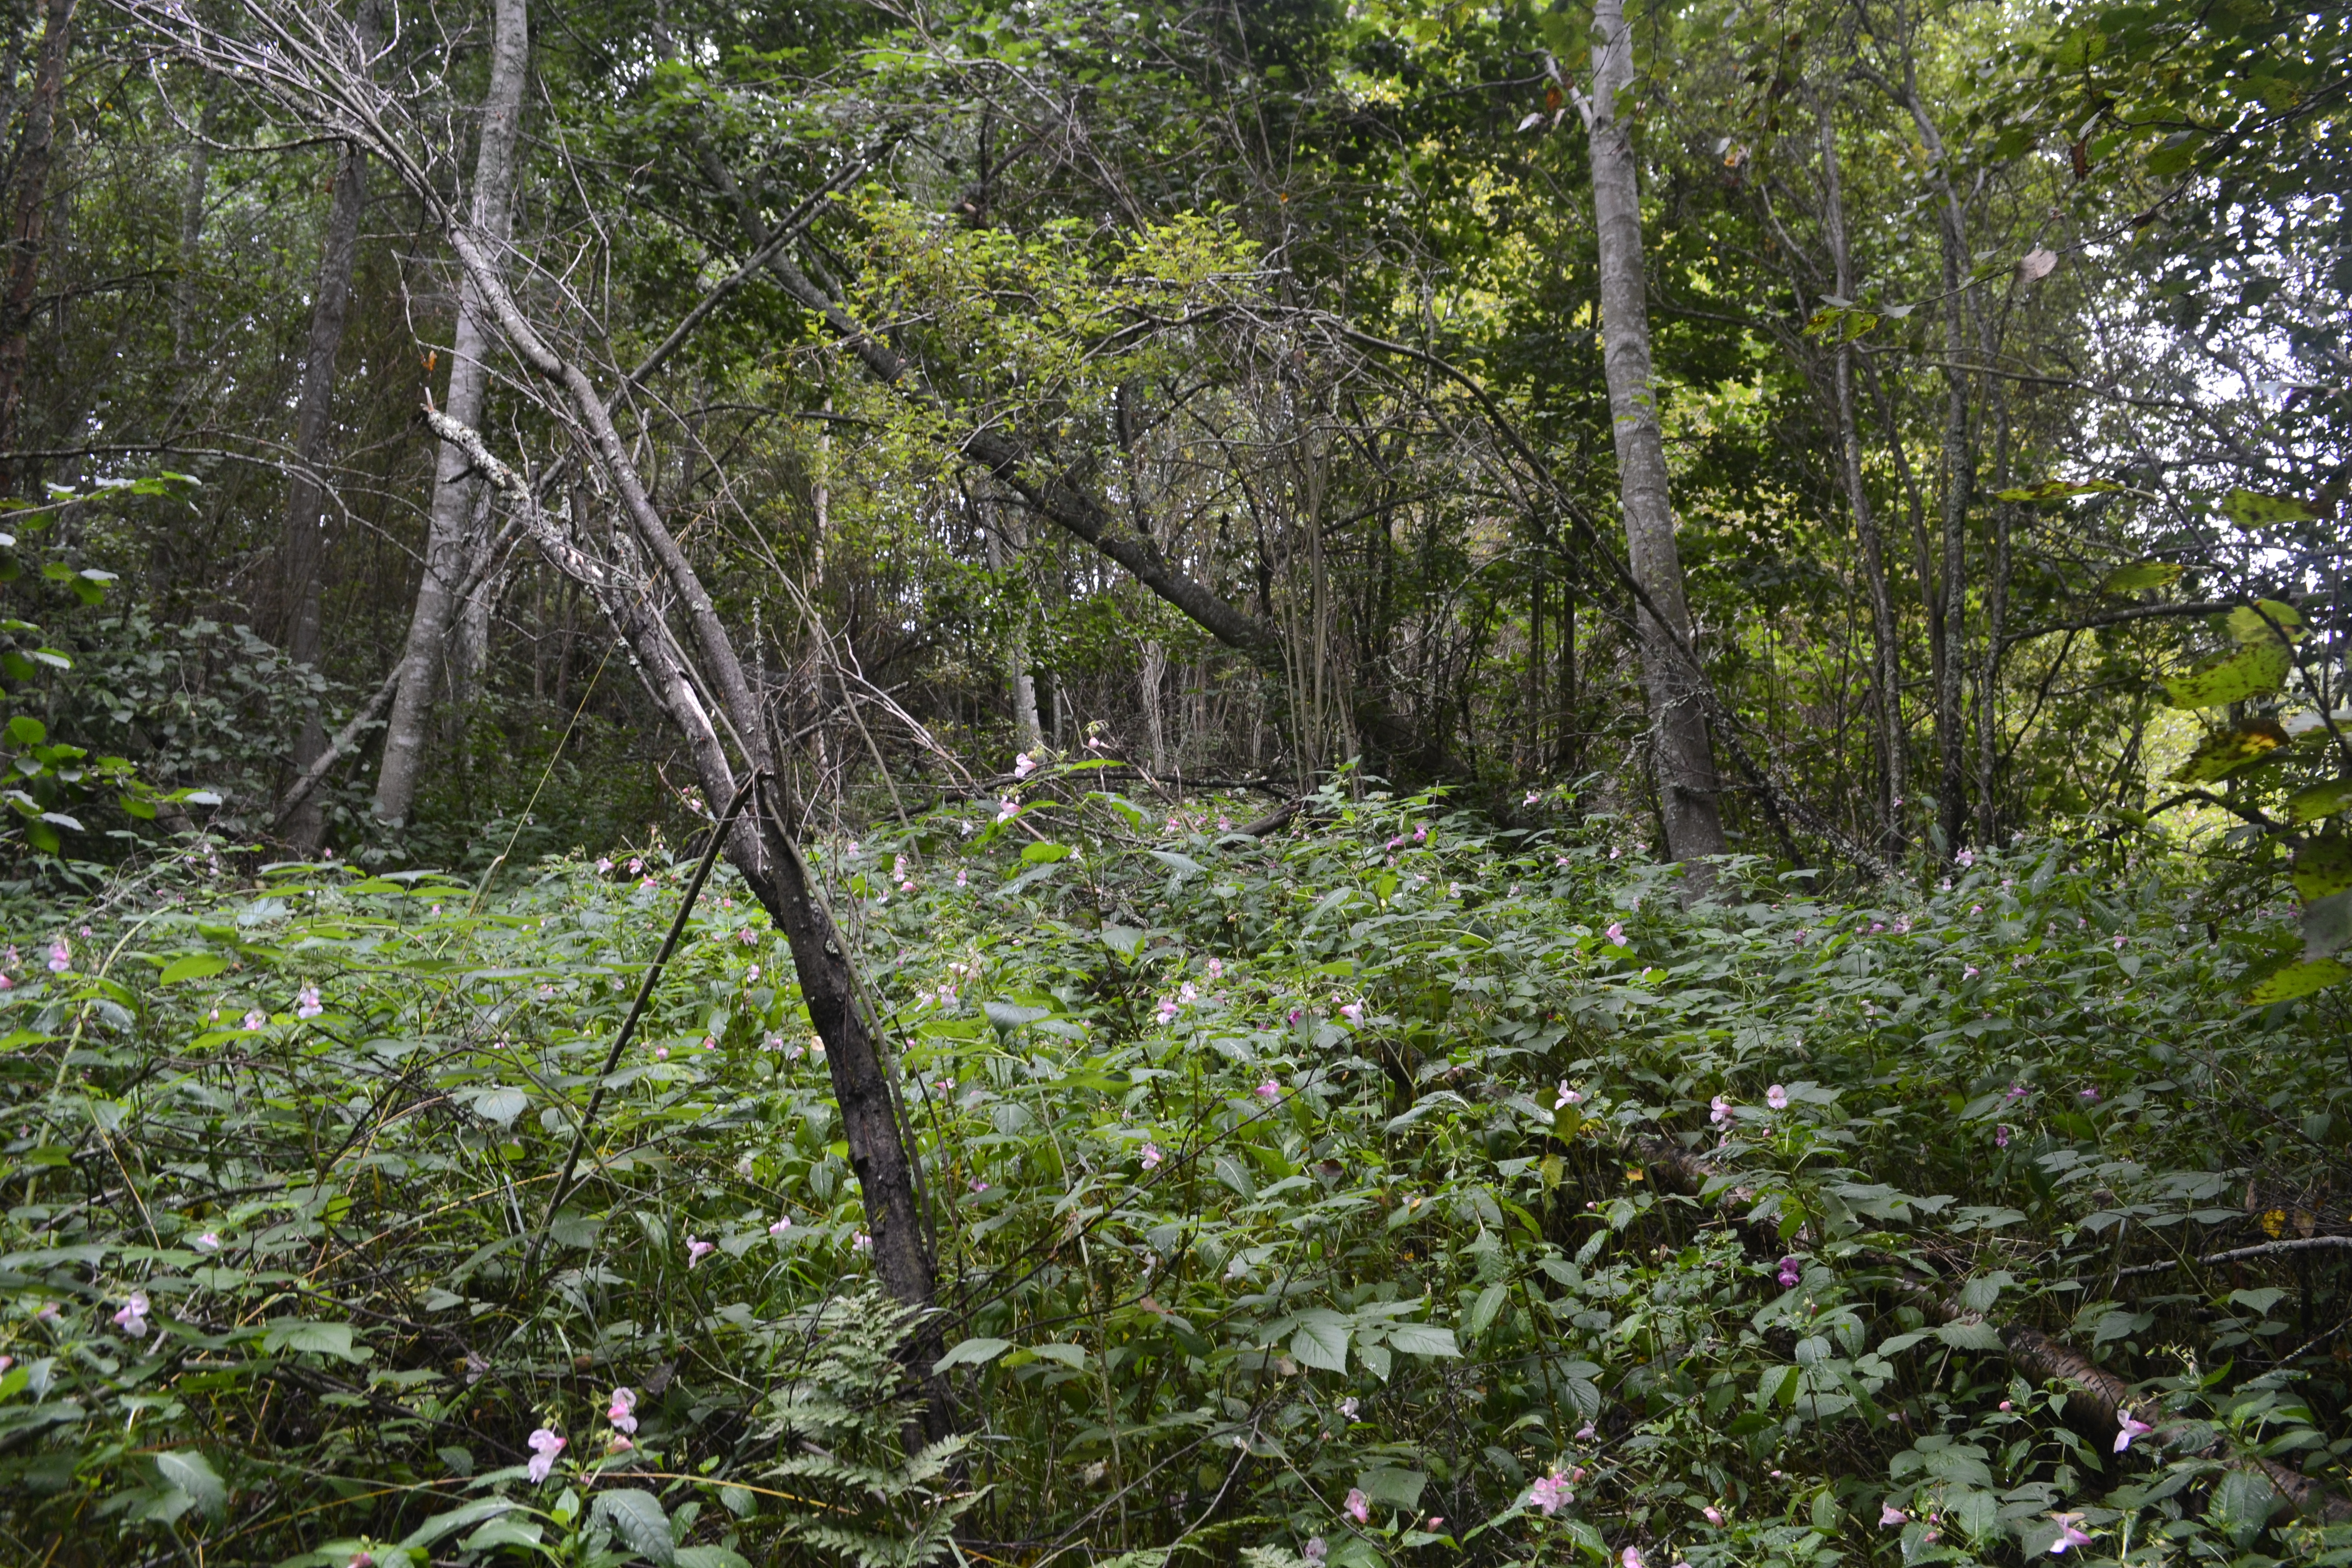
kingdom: Plantae
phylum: Tracheophyta
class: Magnoliopsida
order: Ericales
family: Balsaminaceae
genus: Impatiens
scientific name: Impatiens glandulifera
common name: Himalayan balsam
